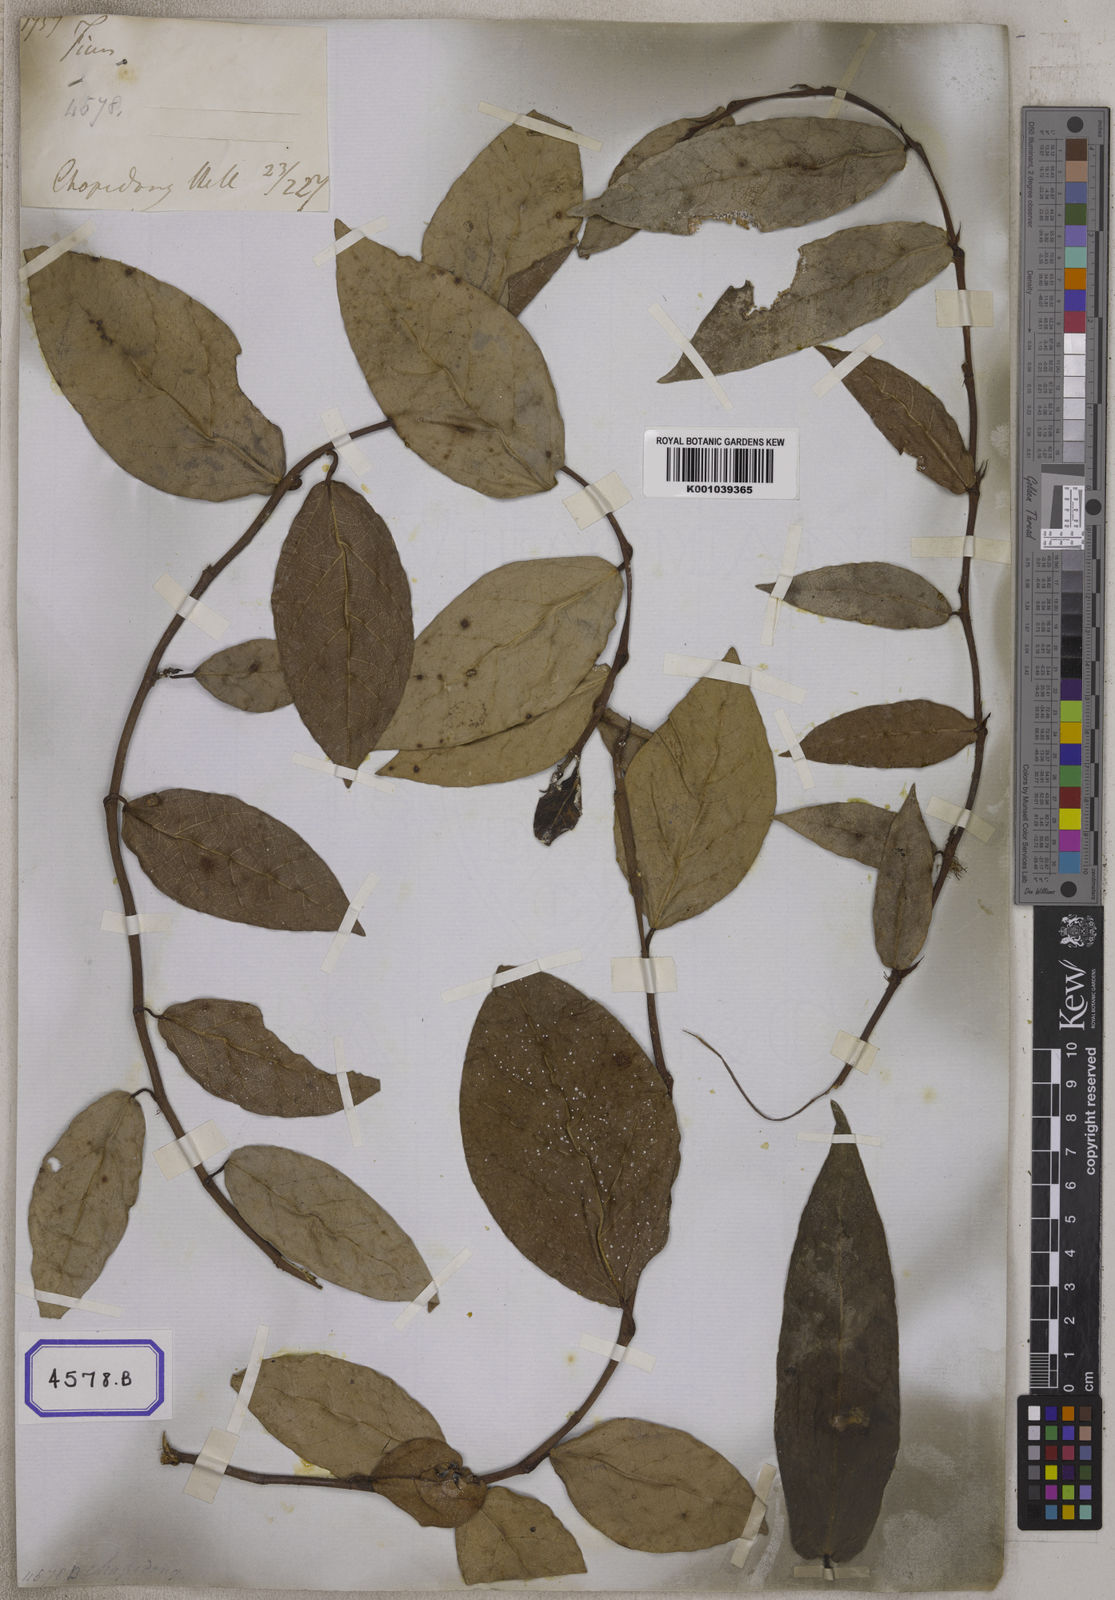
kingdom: Plantae
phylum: Tracheophyta
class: Magnoliopsida
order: Rosales
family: Moraceae
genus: Ficus
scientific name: Ficus
